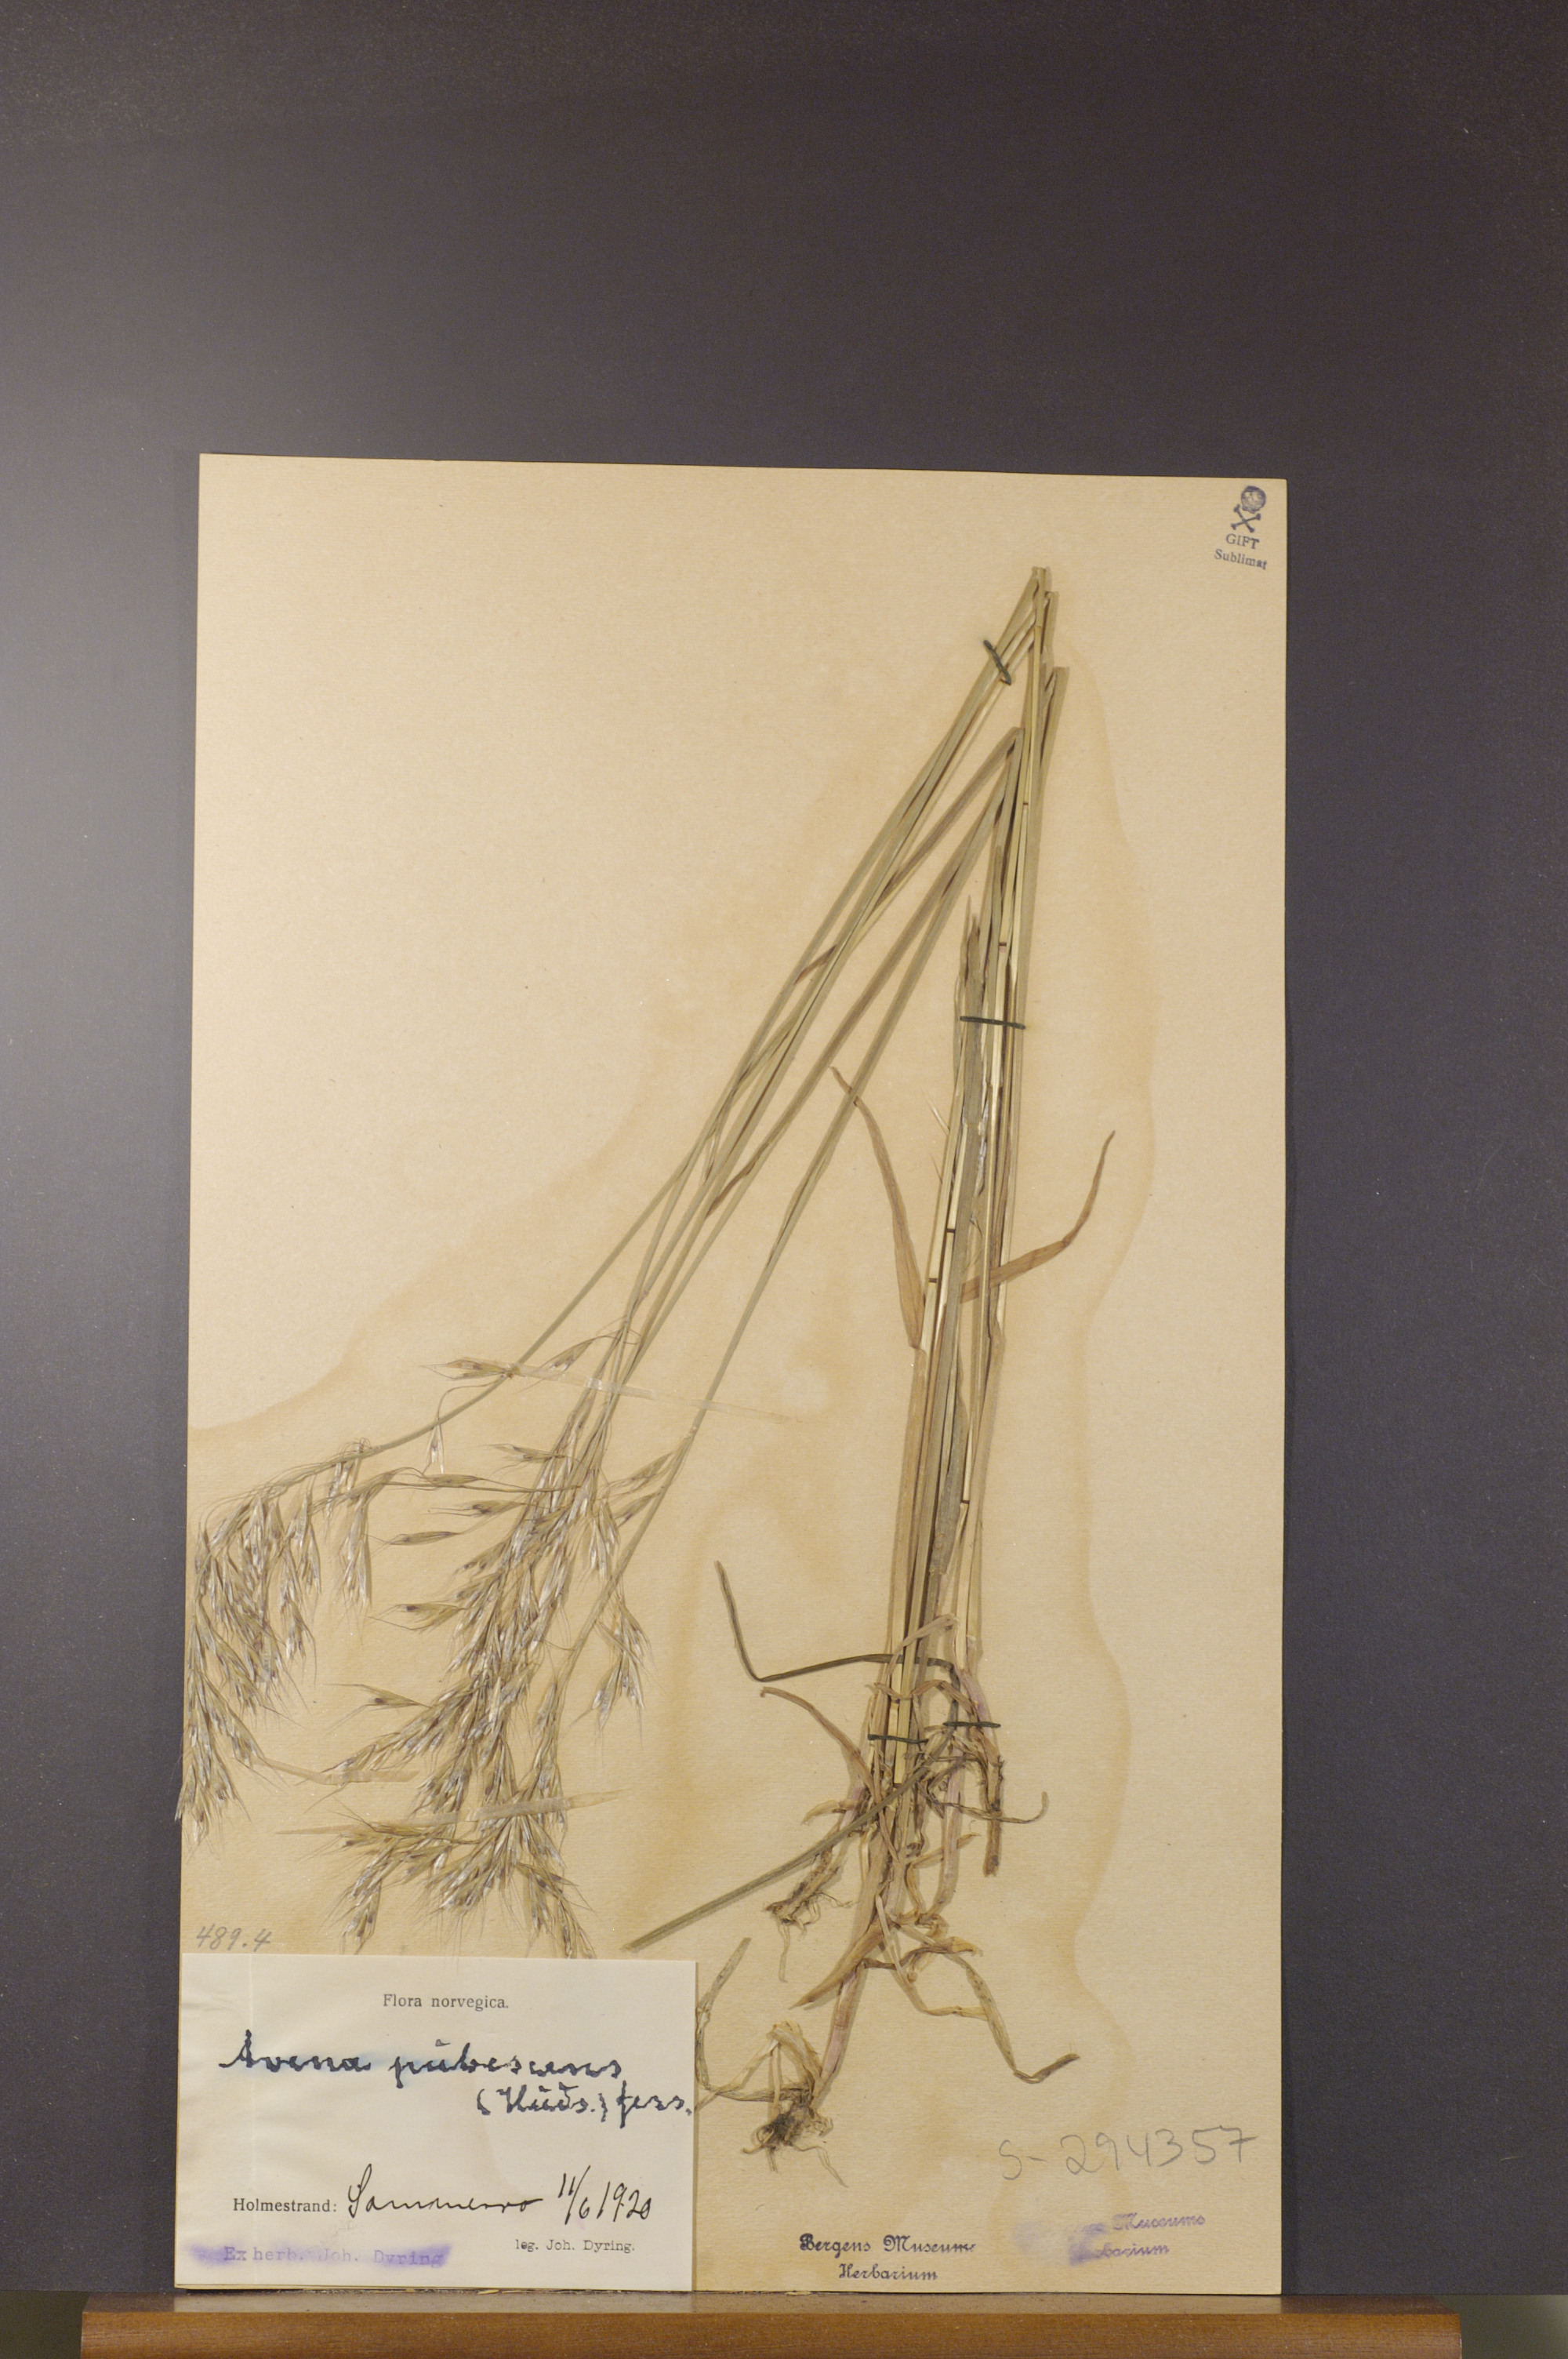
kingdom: Plantae
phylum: Tracheophyta
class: Liliopsida
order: Poales
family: Poaceae
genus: Avenula
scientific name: Avenula pubescens
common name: Downy alpine oatgrass
